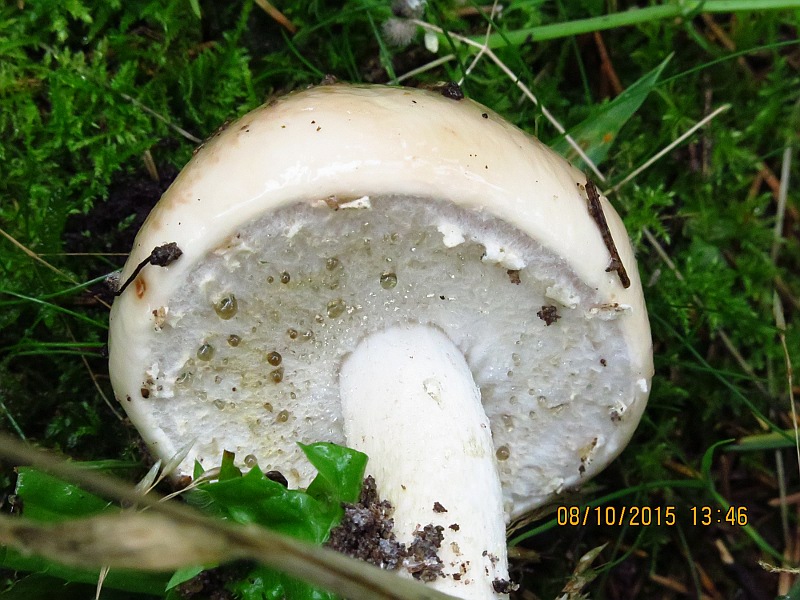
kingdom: Fungi
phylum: Basidiomycota
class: Agaricomycetes
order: Agaricales
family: Amanitaceae
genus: Limacellopsis
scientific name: Limacellopsis guttata
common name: tåre-snekkehat
